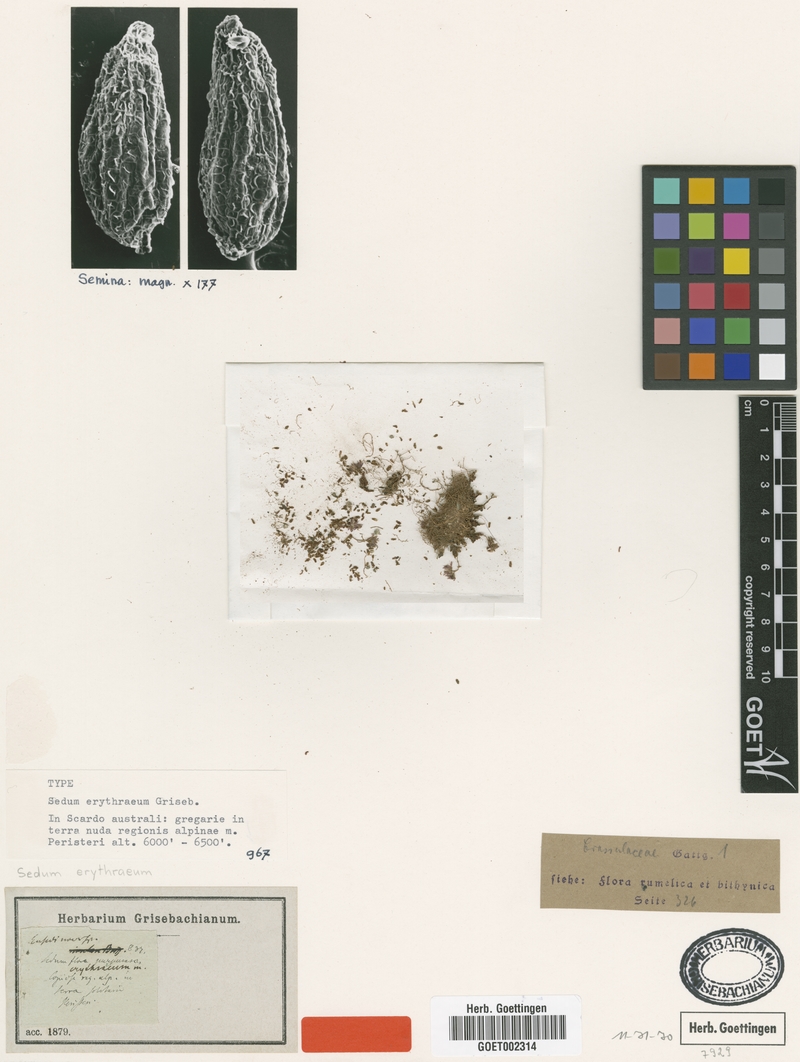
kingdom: Plantae
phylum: Tracheophyta
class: Magnoliopsida
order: Saxifragales
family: Crassulaceae
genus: Sedum
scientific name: Sedum alpestre
